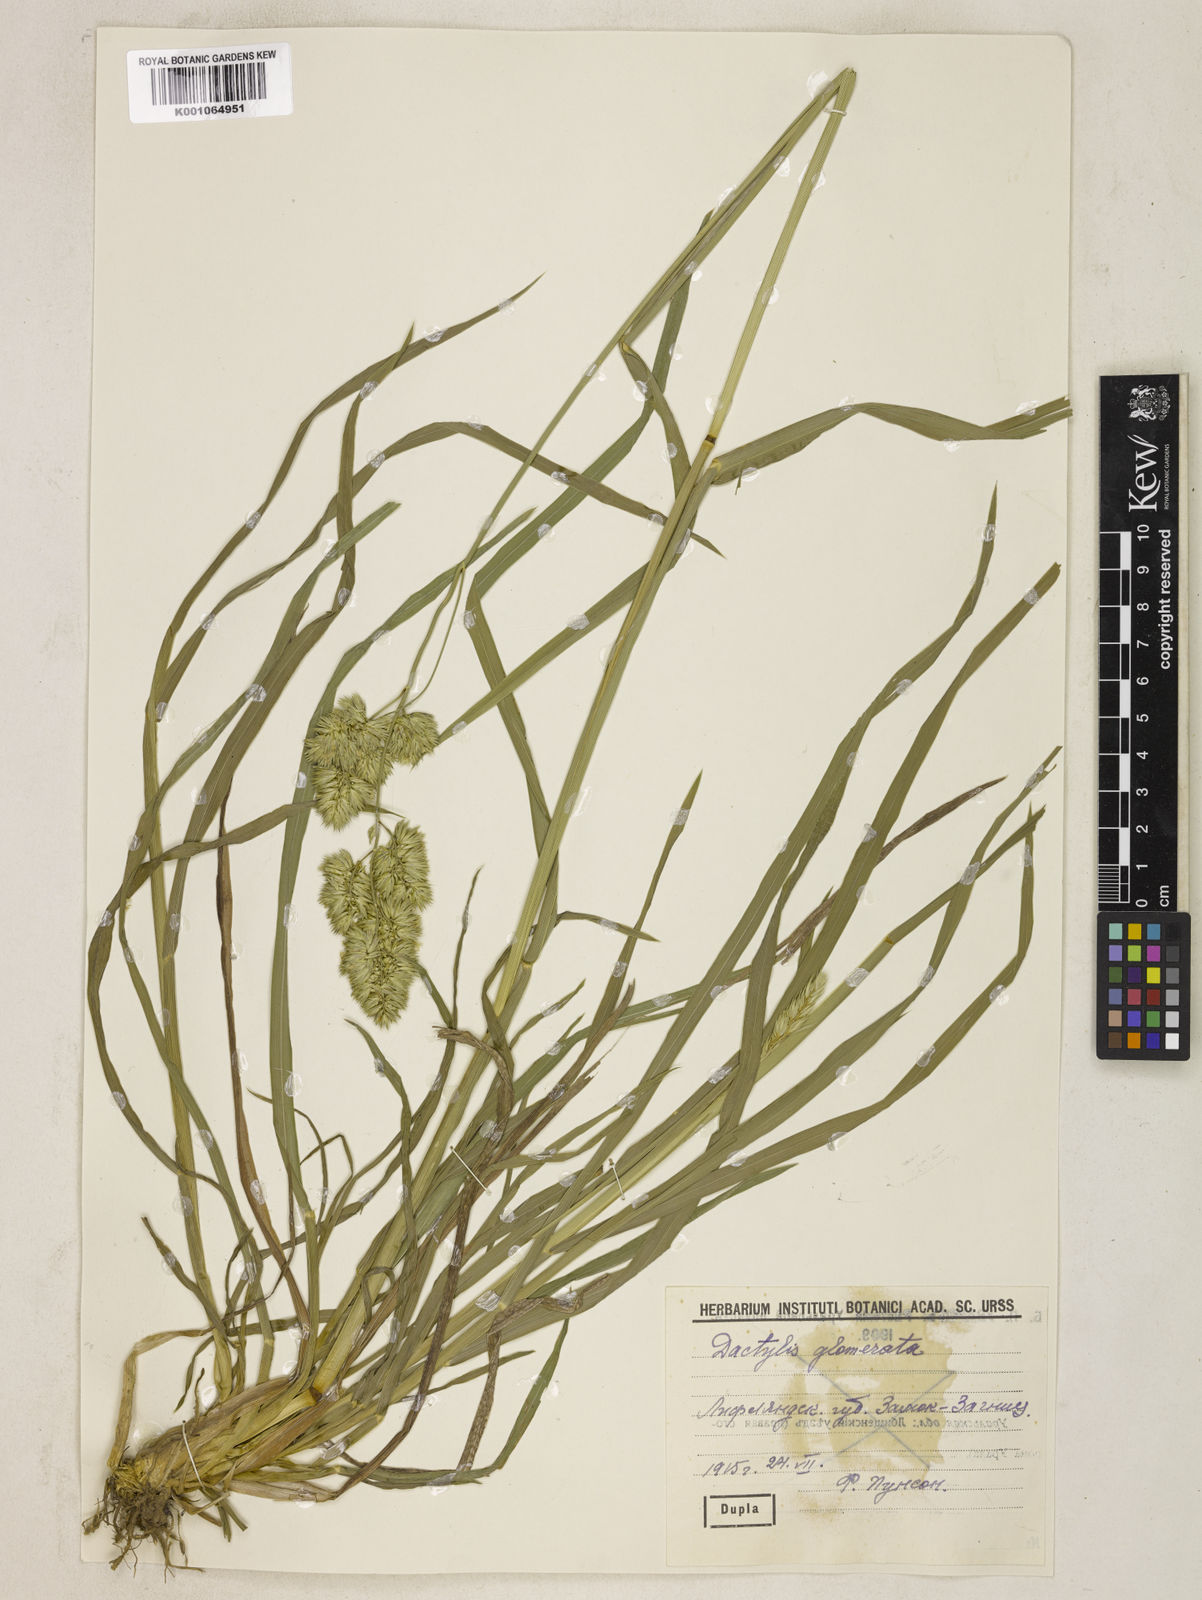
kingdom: Plantae
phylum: Tracheophyta
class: Liliopsida
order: Poales
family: Poaceae
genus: Dactylis
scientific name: Dactylis glomerata
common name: Orchardgrass
